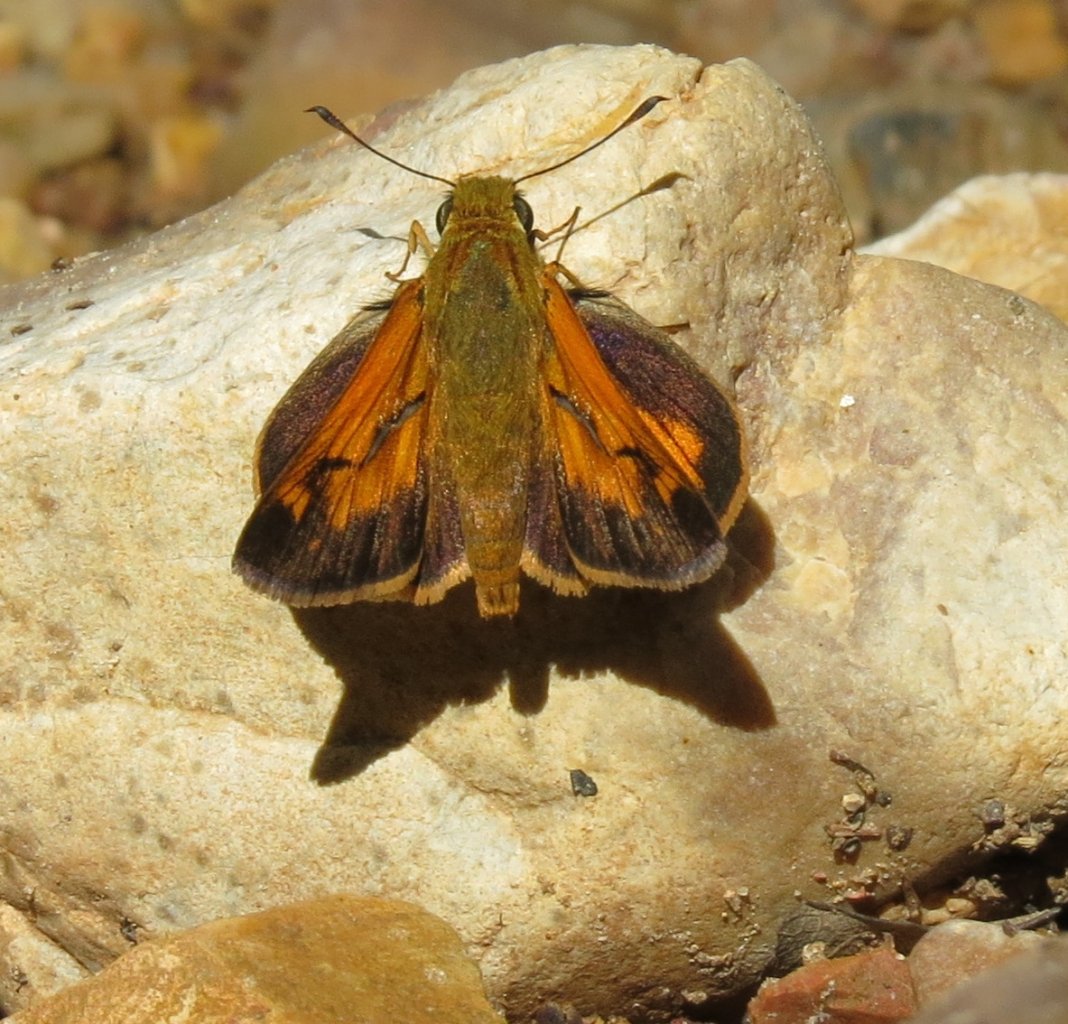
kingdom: Animalia
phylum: Arthropoda
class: Insecta
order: Lepidoptera
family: Hesperiidae
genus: Poanes
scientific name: Poanes yehl
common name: Yehl Skipper
